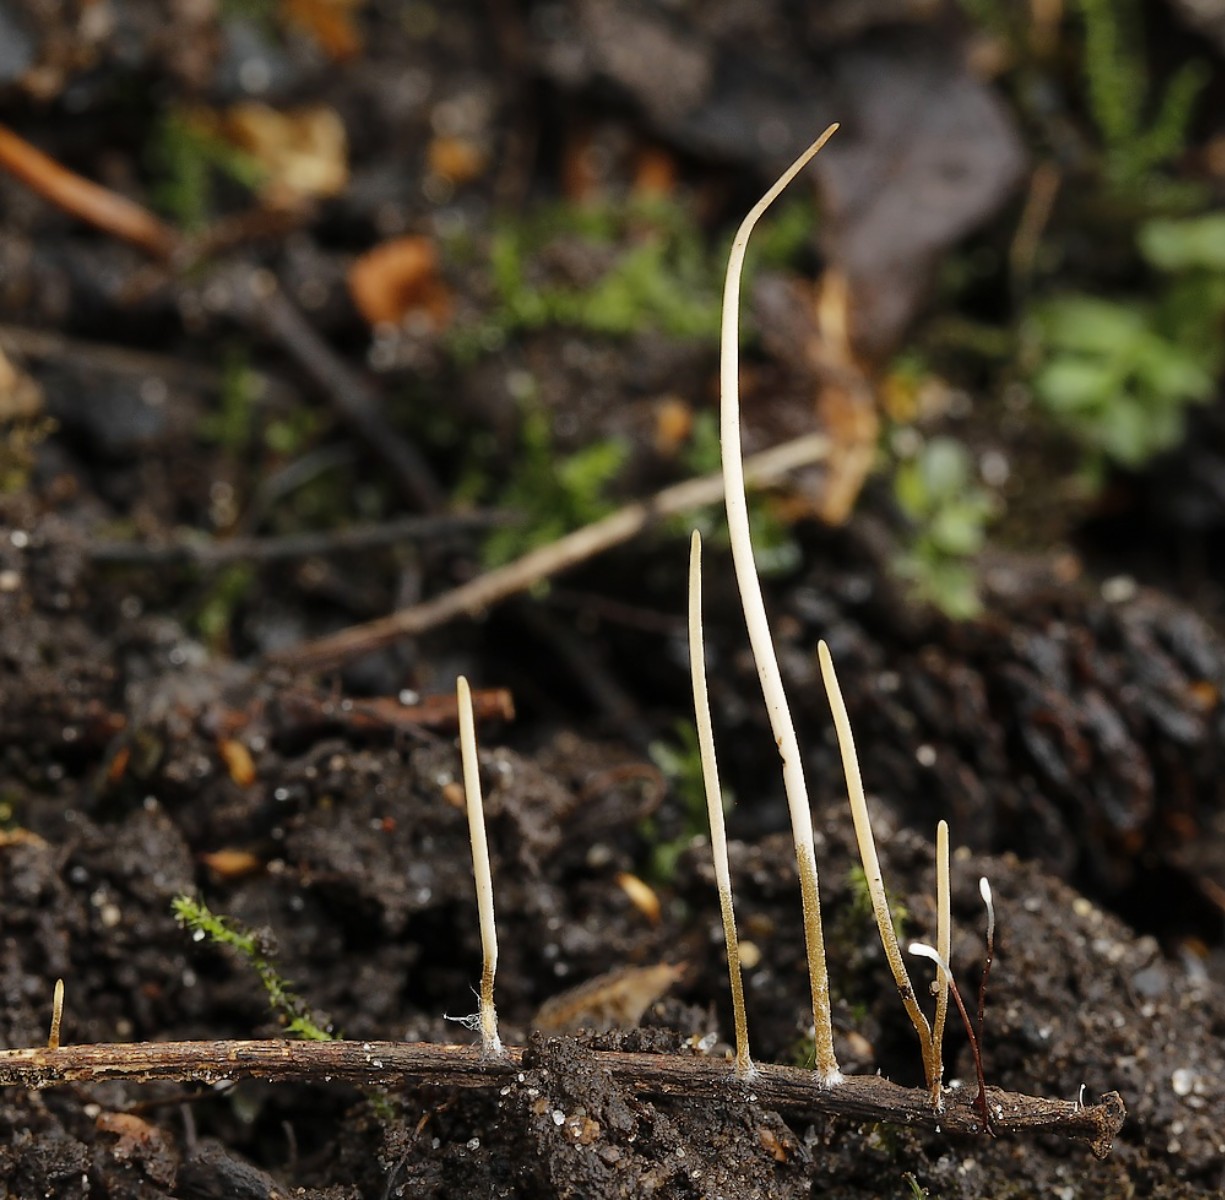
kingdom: Fungi
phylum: Basidiomycota
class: Agaricomycetes
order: Agaricales
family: Typhulaceae
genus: Typhula
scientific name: Typhula juncea
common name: trådagtig rørkølle
